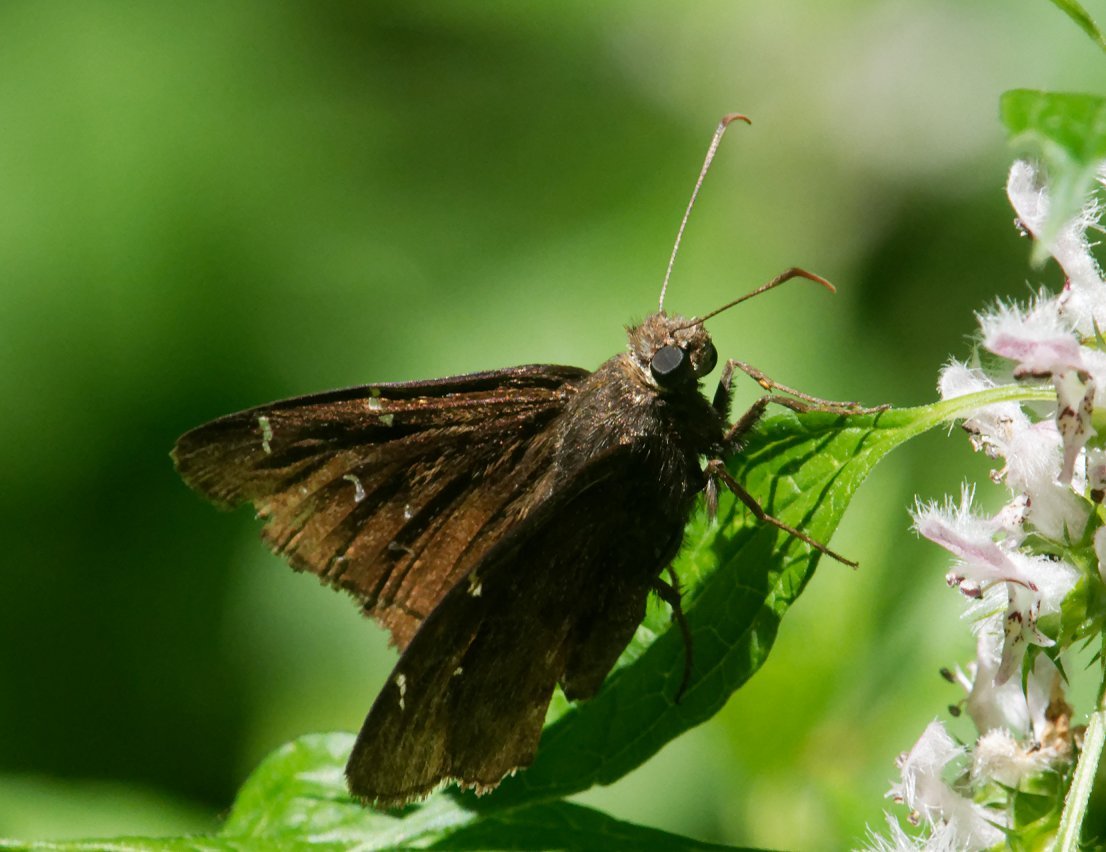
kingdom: Animalia
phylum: Arthropoda
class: Insecta
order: Lepidoptera
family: Hesperiidae
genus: Autochton
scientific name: Autochton
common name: Northern Cloudywing
